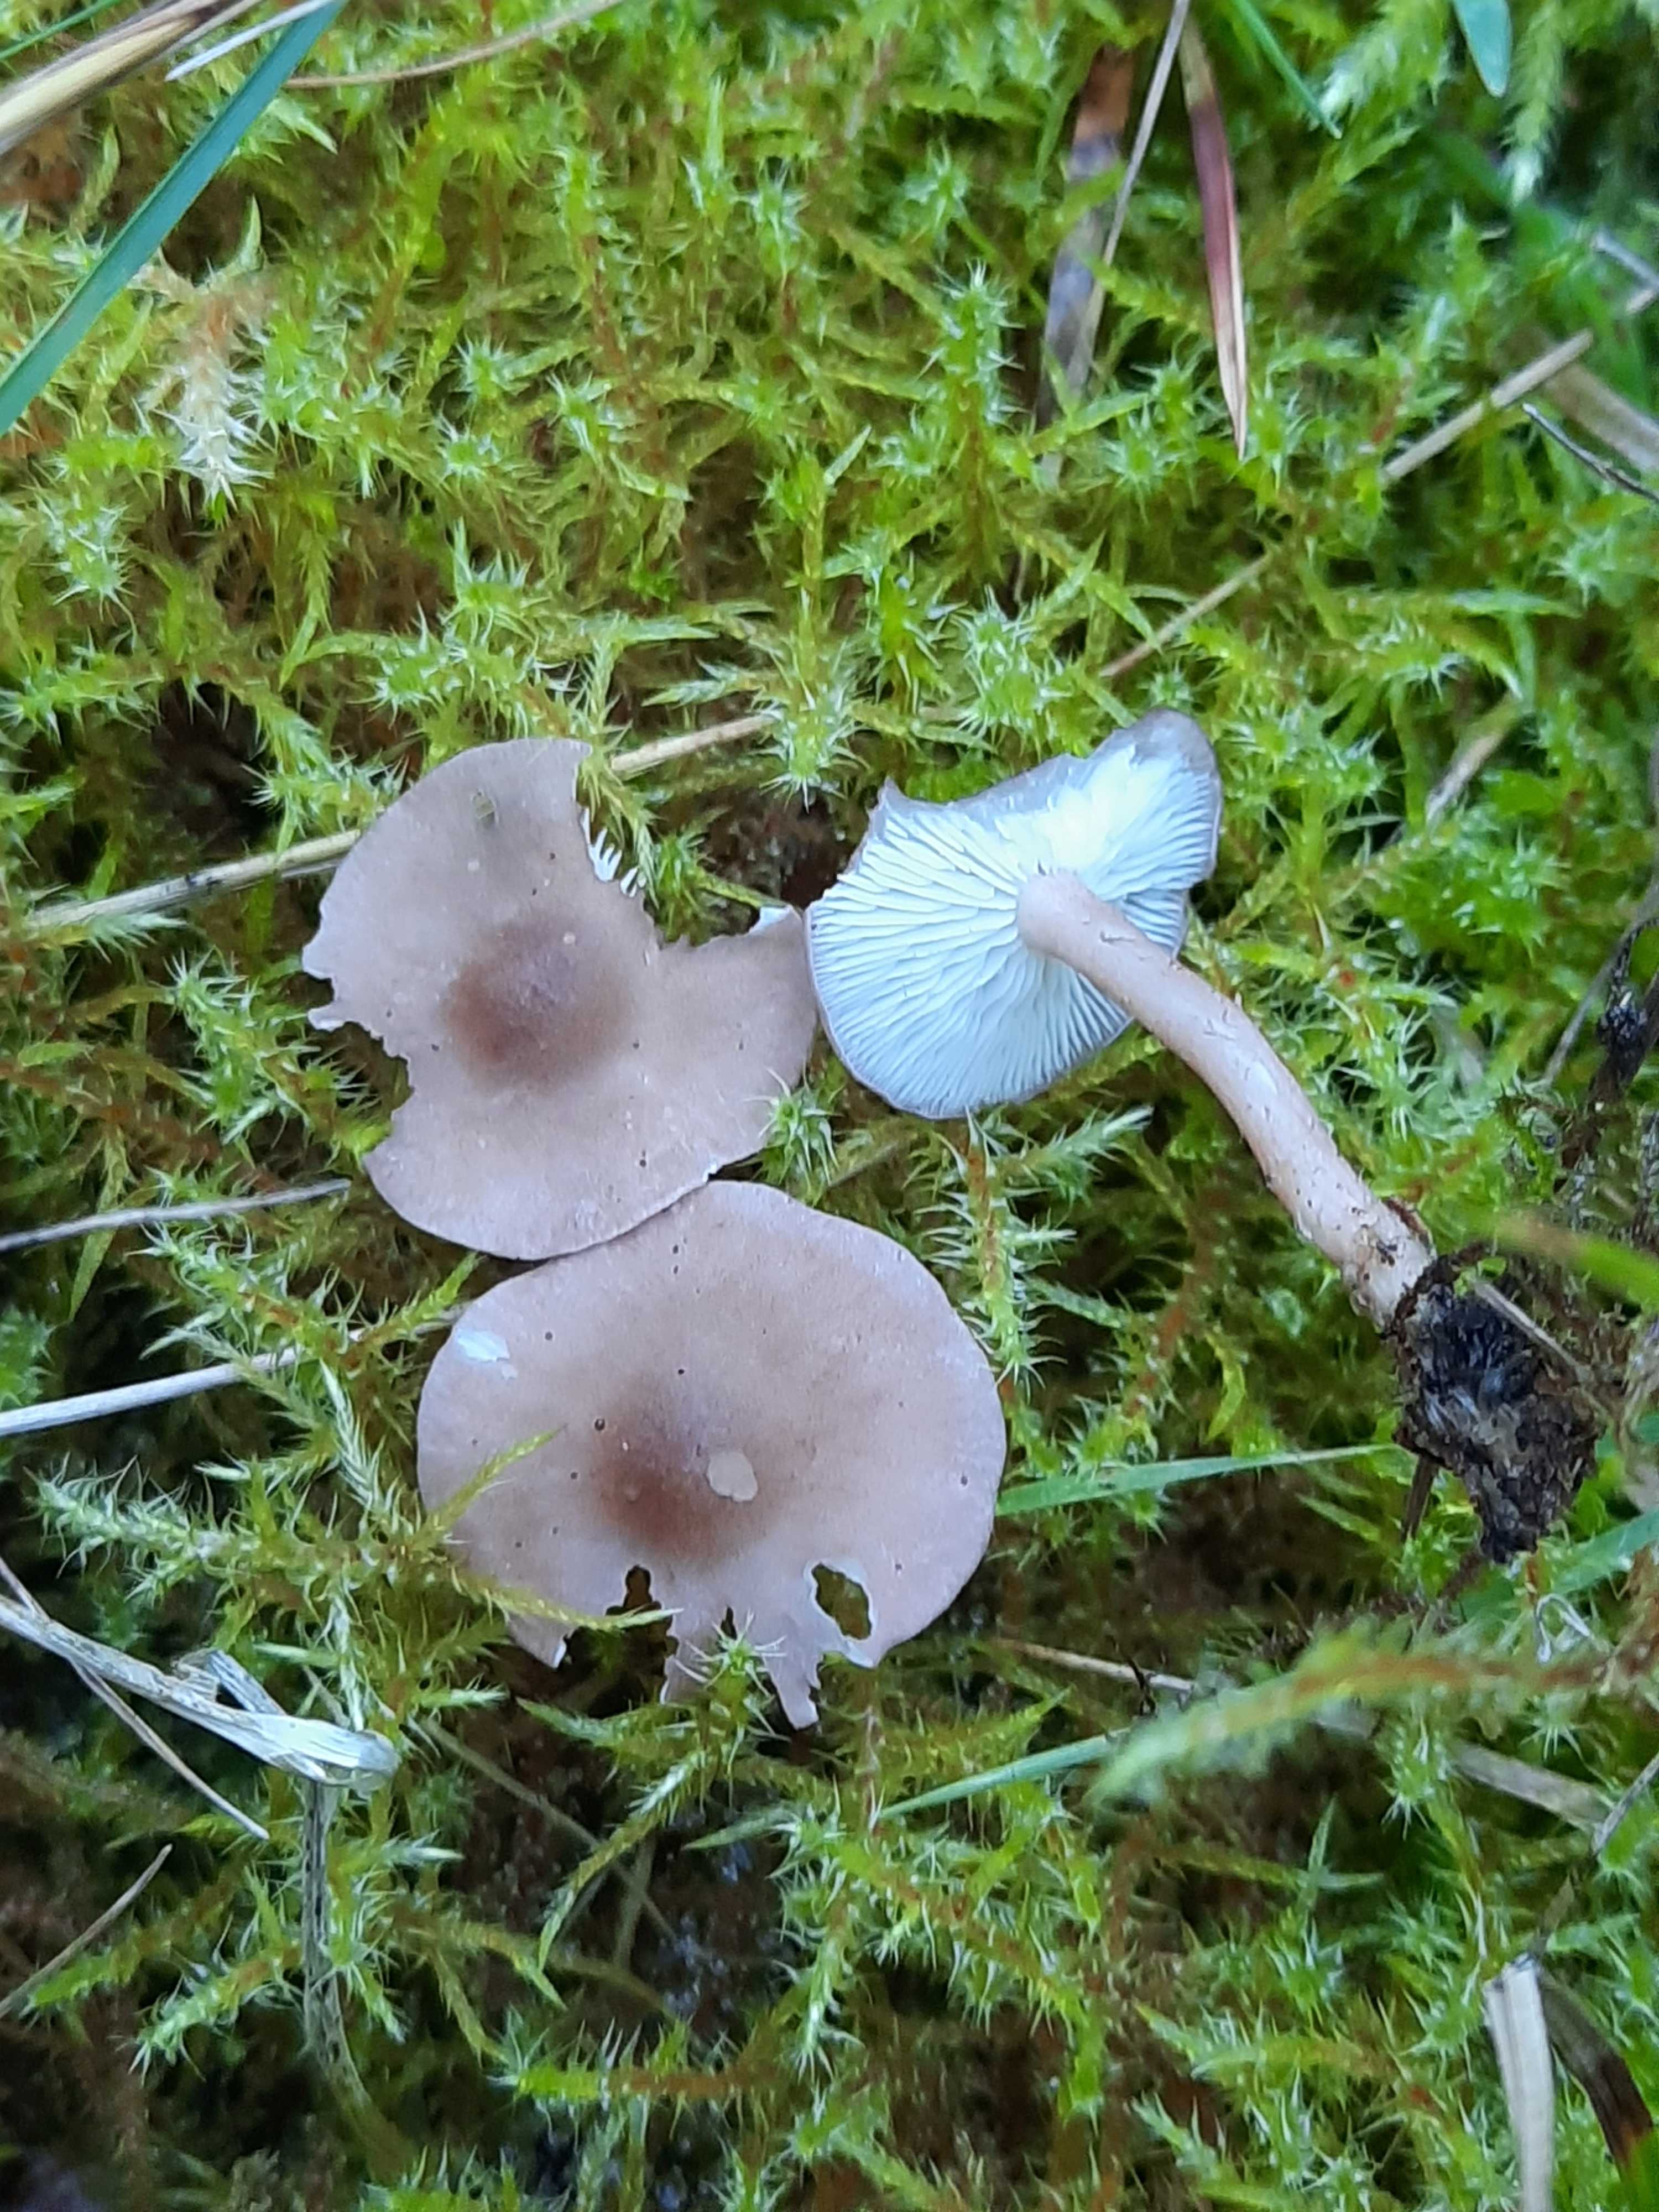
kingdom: Fungi
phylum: Basidiomycota
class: Agaricomycetes
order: Agaricales
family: Lyophyllaceae
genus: Calocybe
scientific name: Calocybe carnea
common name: rosa fagerhat
